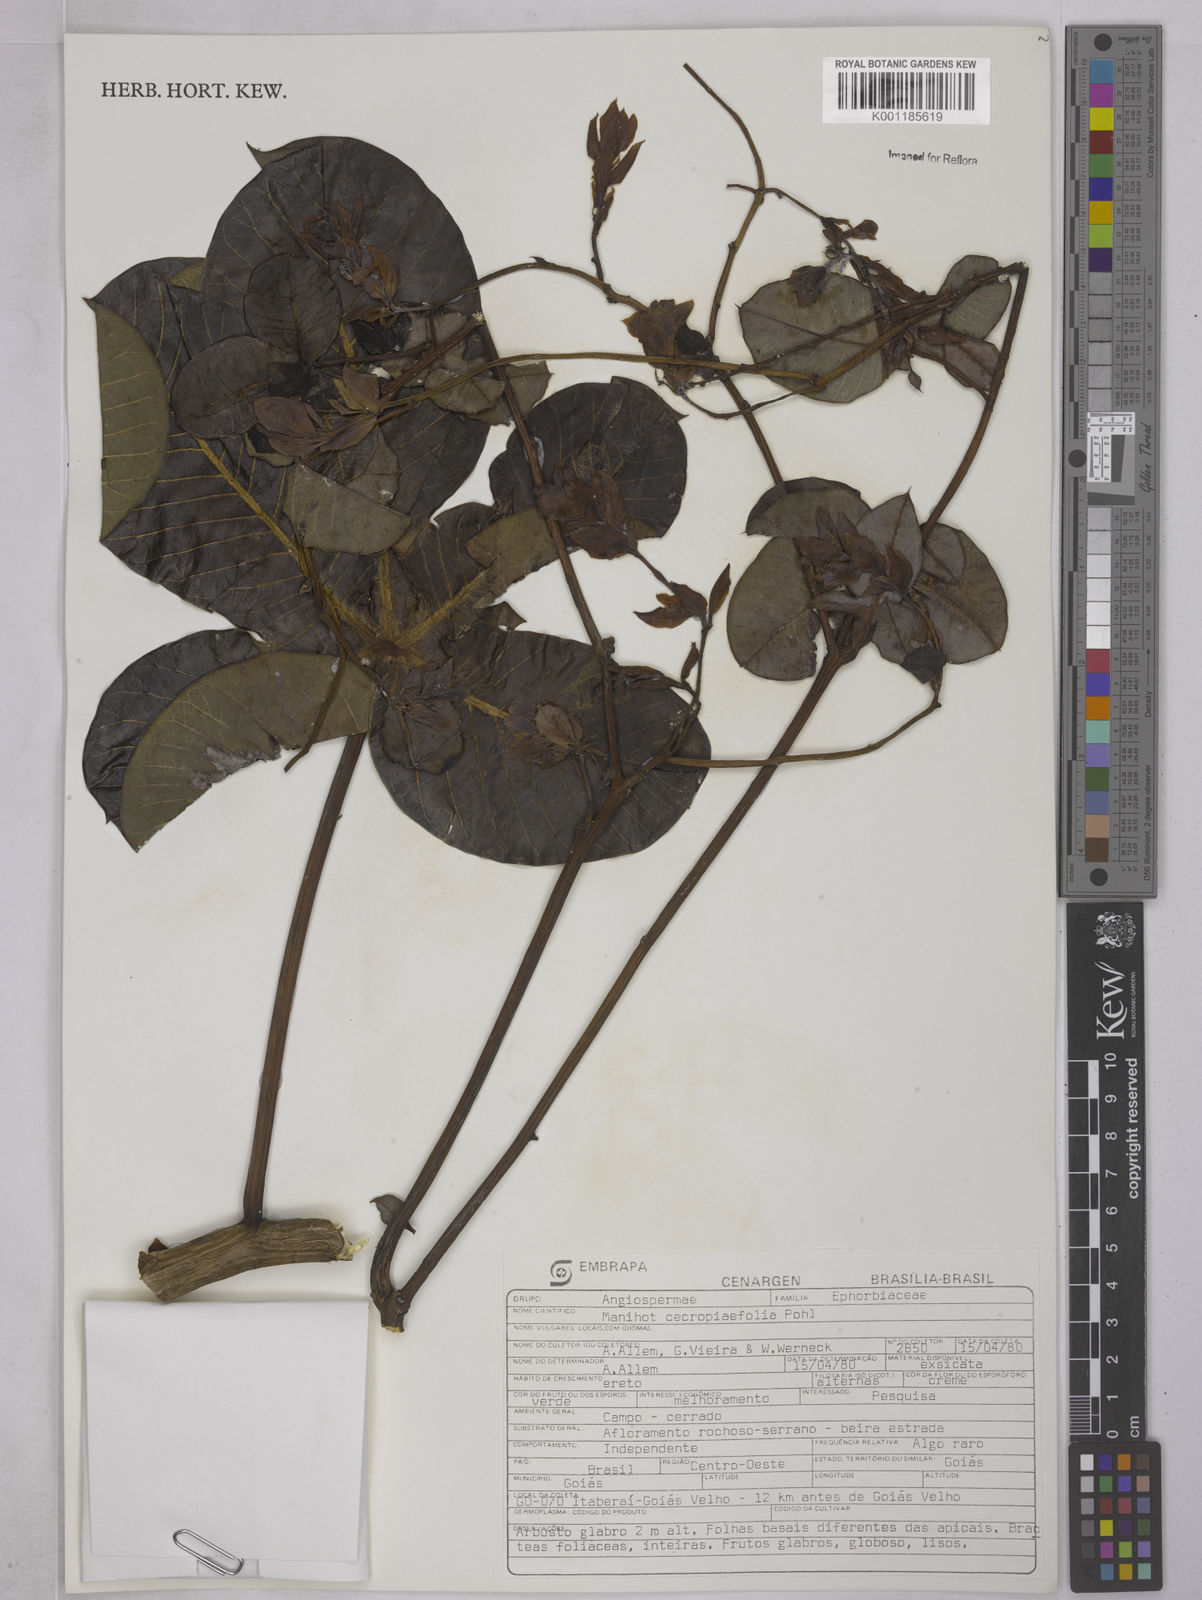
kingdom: Plantae
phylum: Tracheophyta
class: Magnoliopsida
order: Malpighiales
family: Euphorbiaceae
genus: Manihot
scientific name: Manihot cecropiifolia
